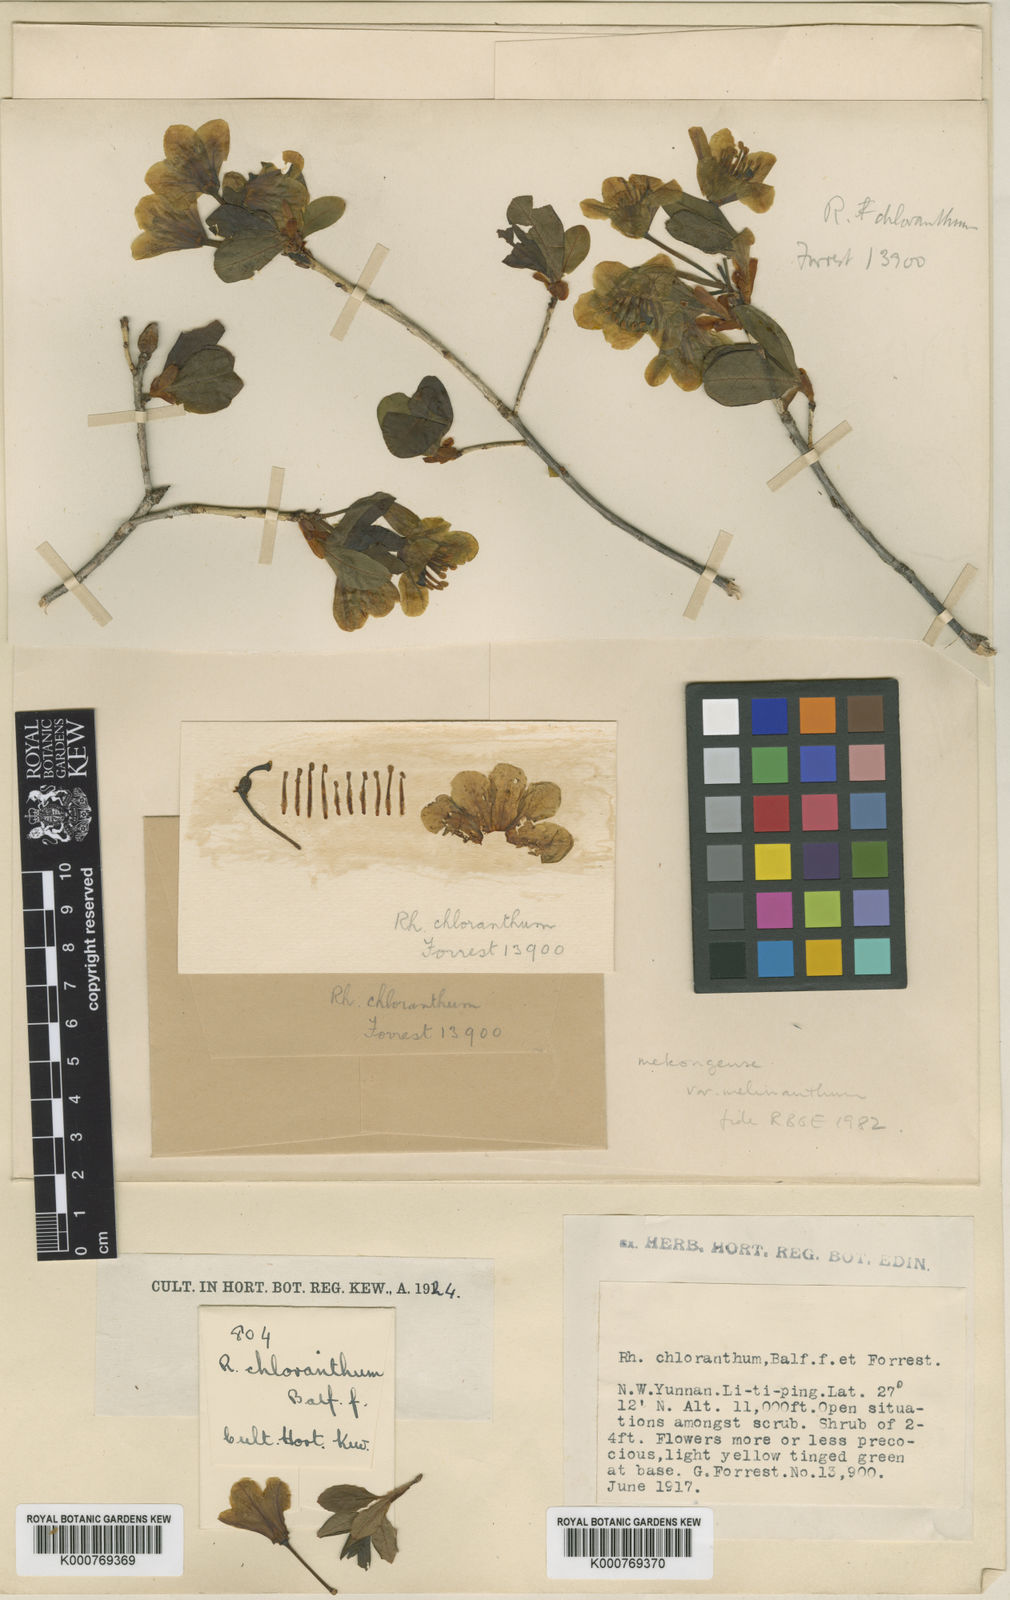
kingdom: Plantae
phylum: Tracheophyta
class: Magnoliopsida
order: Ericales
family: Ericaceae
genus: Rhododendron
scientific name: Rhododendron mekongense
